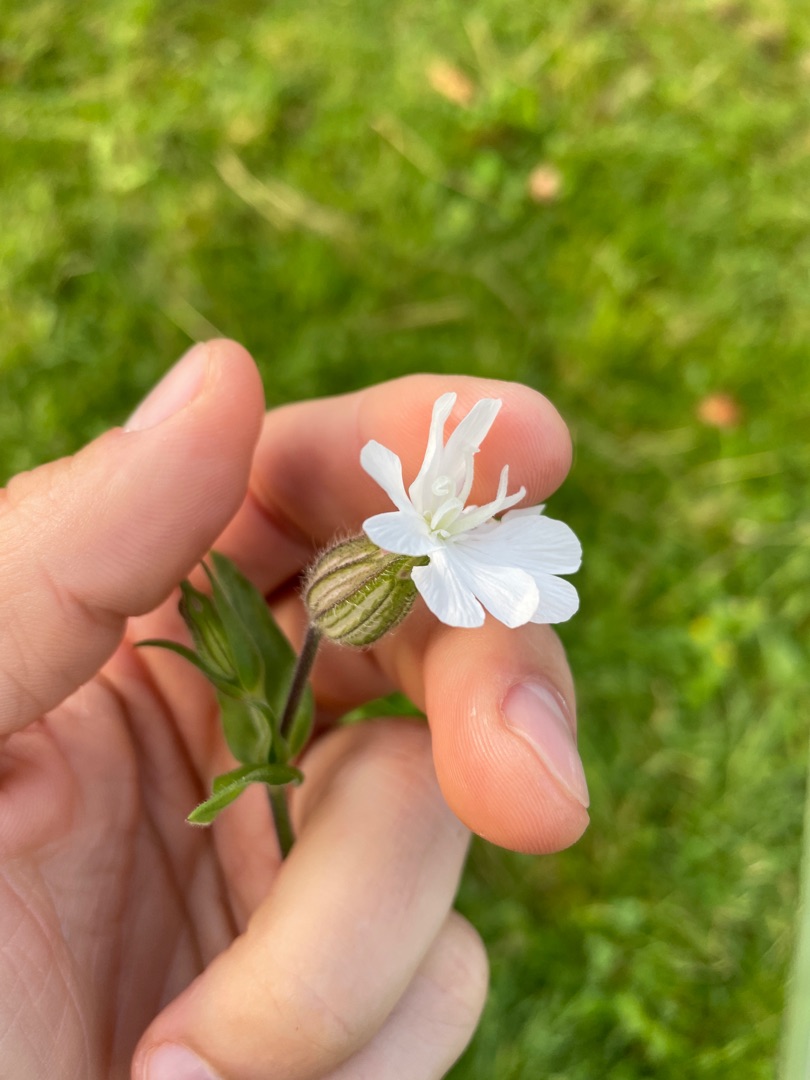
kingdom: Plantae
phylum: Tracheophyta
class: Magnoliopsida
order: Caryophyllales
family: Caryophyllaceae
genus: Silene
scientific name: Silene latifolia
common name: Aftenpragtstjerne
